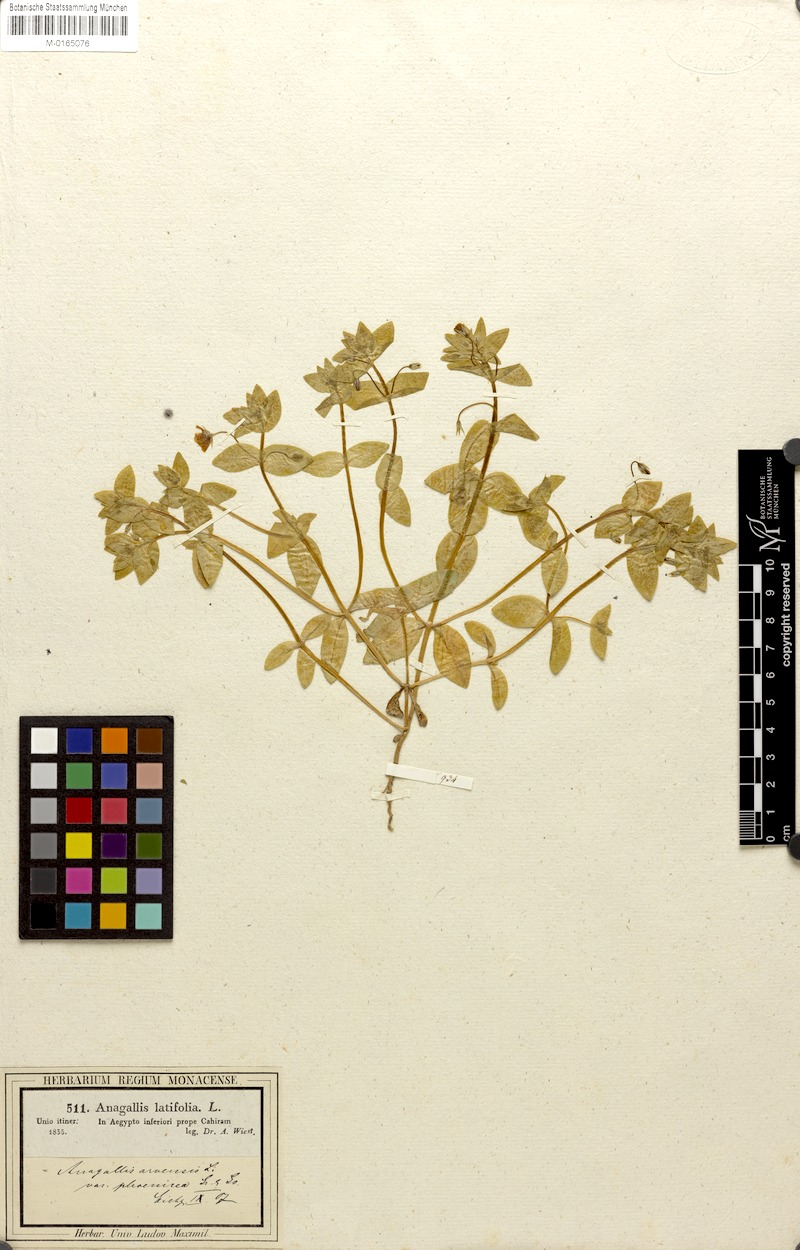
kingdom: Plantae
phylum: Tracheophyta
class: Magnoliopsida
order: Ericales
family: Primulaceae
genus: Lysimachia
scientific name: Lysimachia arvensis
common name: Scarlet pimpernel
